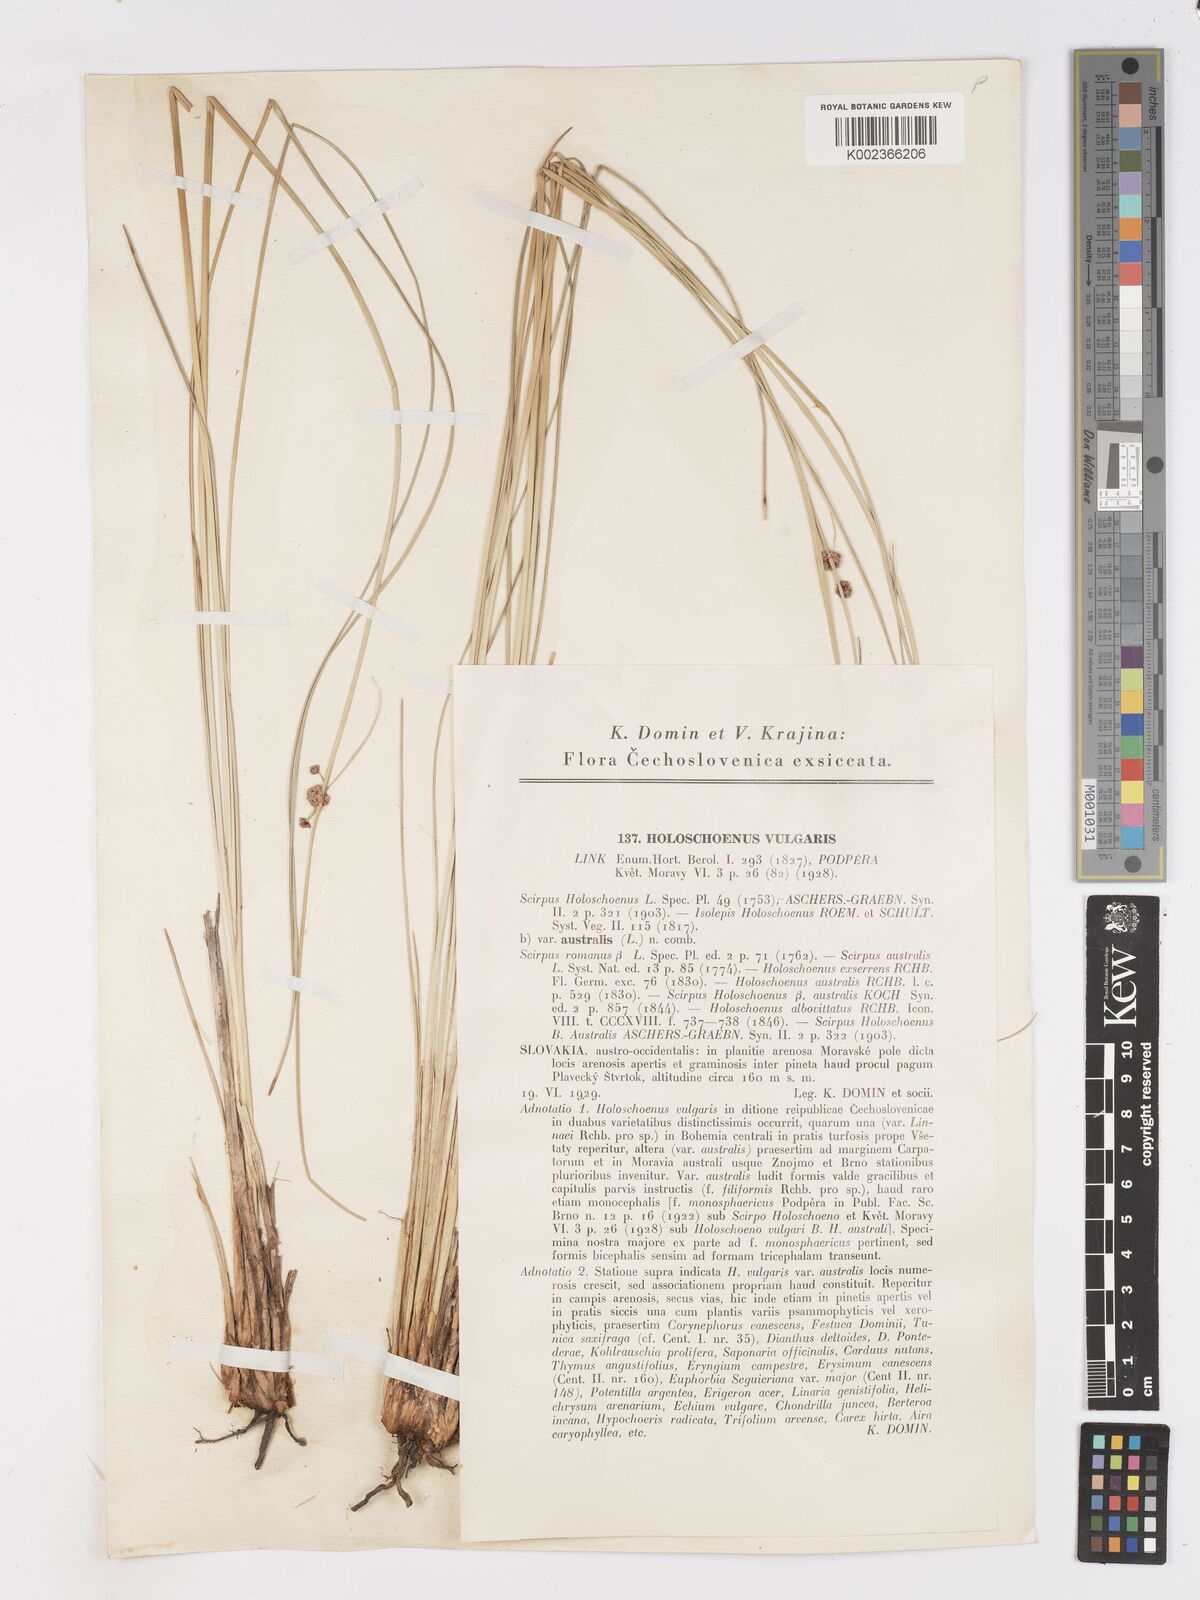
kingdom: Plantae
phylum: Tracheophyta
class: Liliopsida
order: Poales
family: Cyperaceae
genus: Scirpoides
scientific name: Scirpoides holoschoenus
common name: Round-headed club-rush
